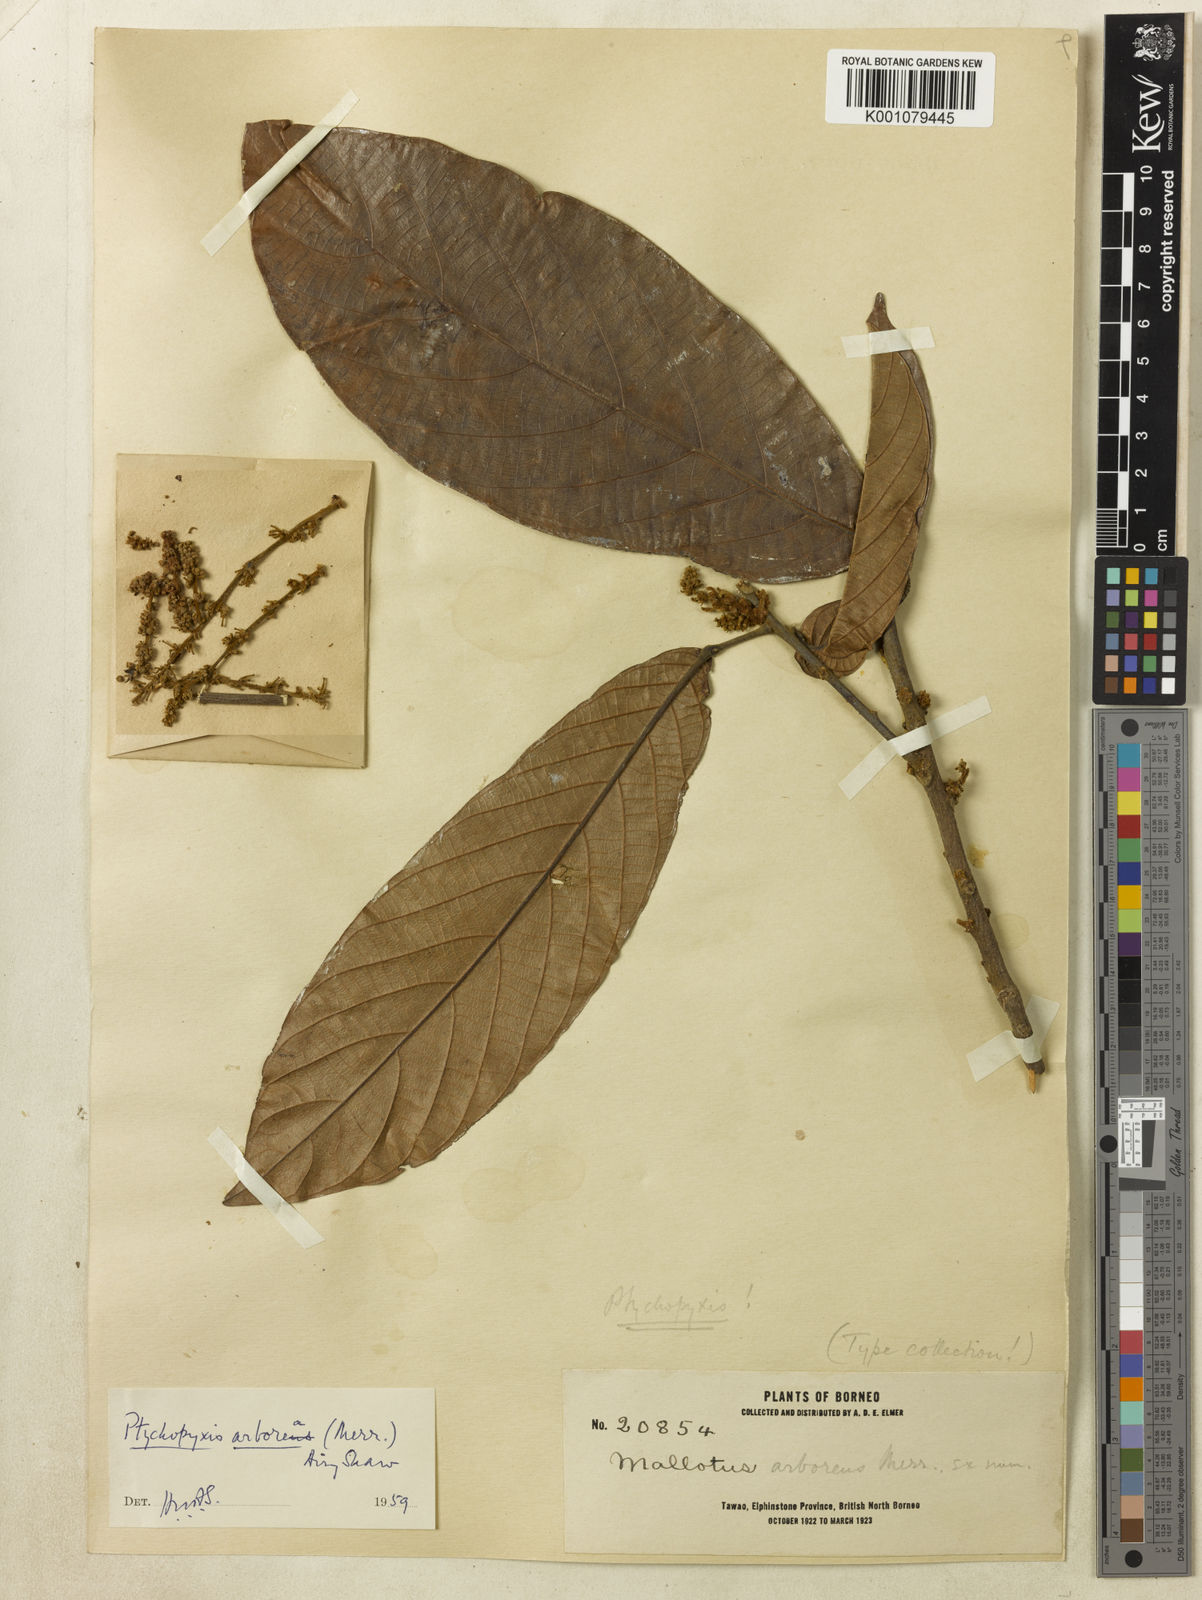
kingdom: Plantae
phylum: Tracheophyta
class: Magnoliopsida
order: Malpighiales
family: Euphorbiaceae
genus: Ptychopyxis
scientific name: Ptychopyxis arborea
